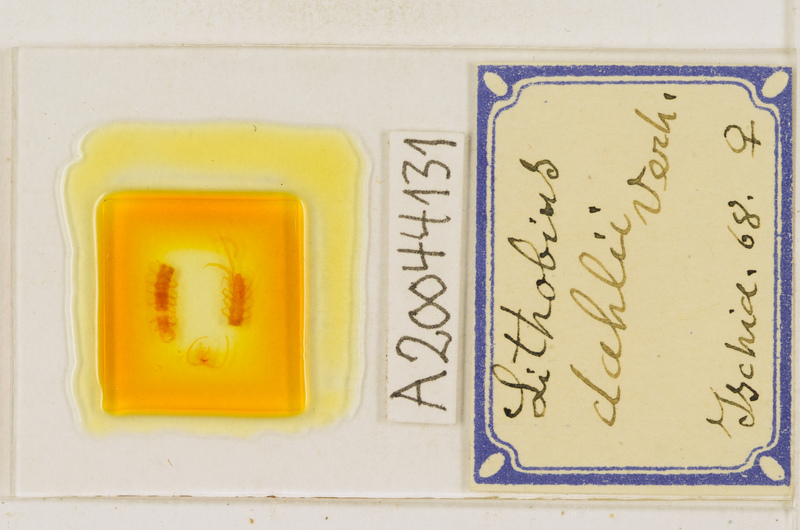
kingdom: Animalia
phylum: Arthropoda
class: Chilopoda
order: Lithobiomorpha
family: Lithobiidae
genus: Lithobius
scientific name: Lithobius dahlii
